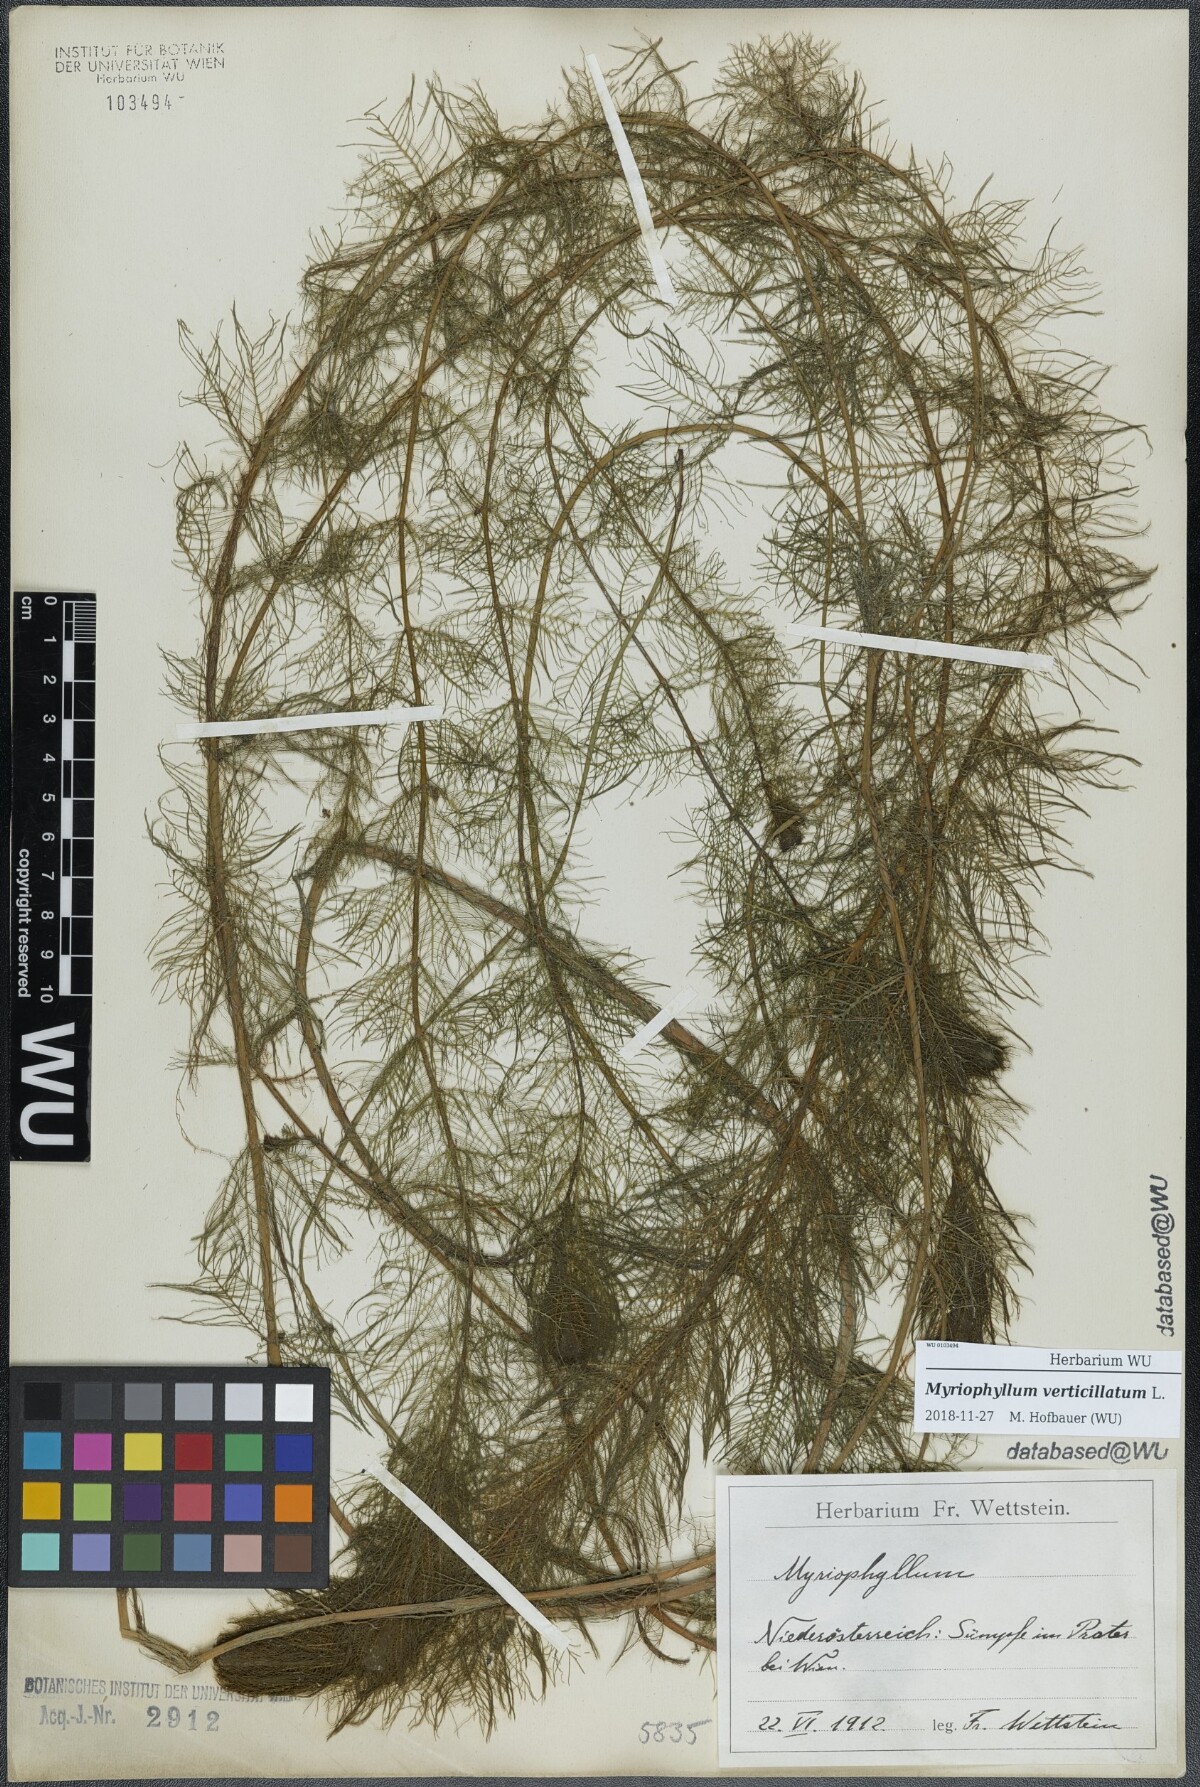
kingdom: Plantae
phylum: Tracheophyta
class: Magnoliopsida
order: Saxifragales
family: Haloragaceae
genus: Myriophyllum
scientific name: Myriophyllum verticillatum
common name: Whorled water-milfoil
